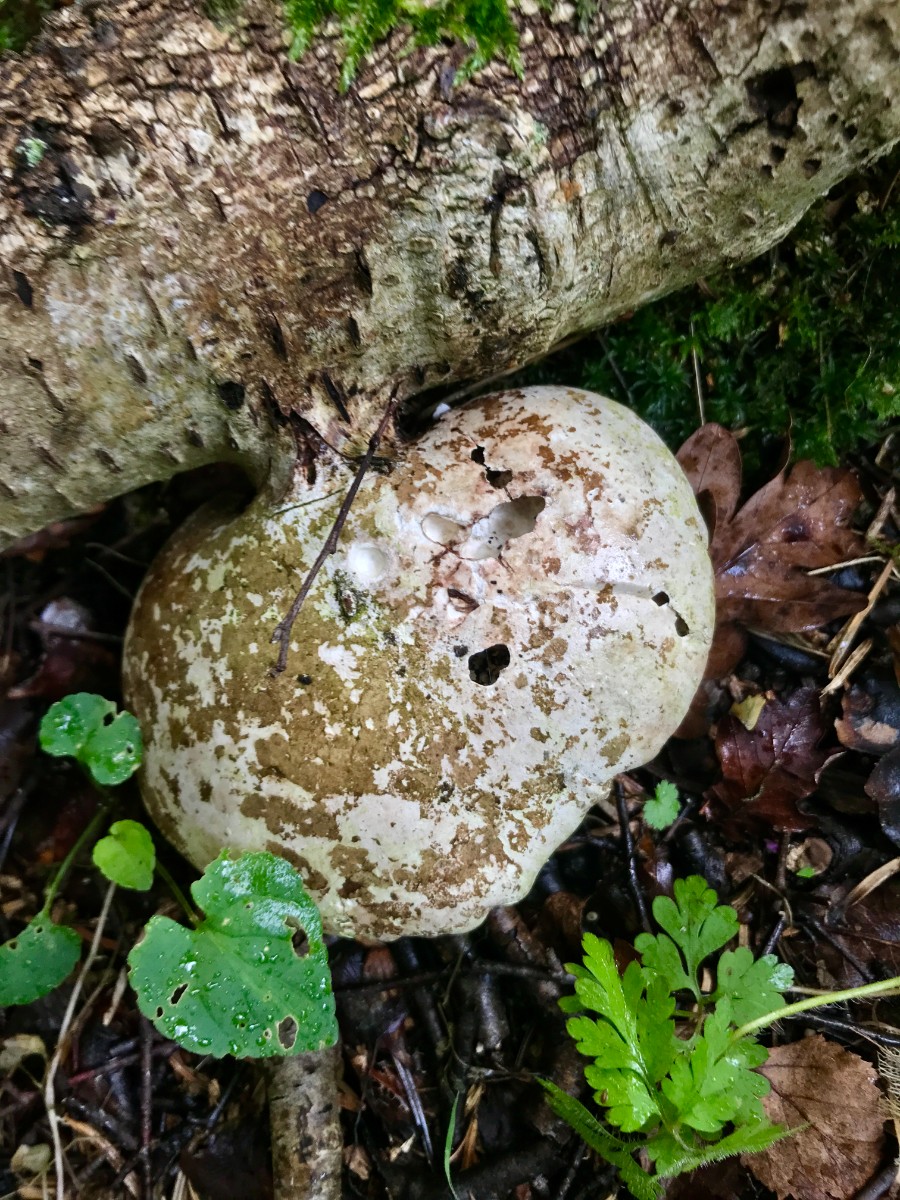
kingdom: Fungi
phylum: Basidiomycota
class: Agaricomycetes
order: Polyporales
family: Fomitopsidaceae
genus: Fomitopsis
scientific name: Fomitopsis betulina
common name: birkeporesvamp
